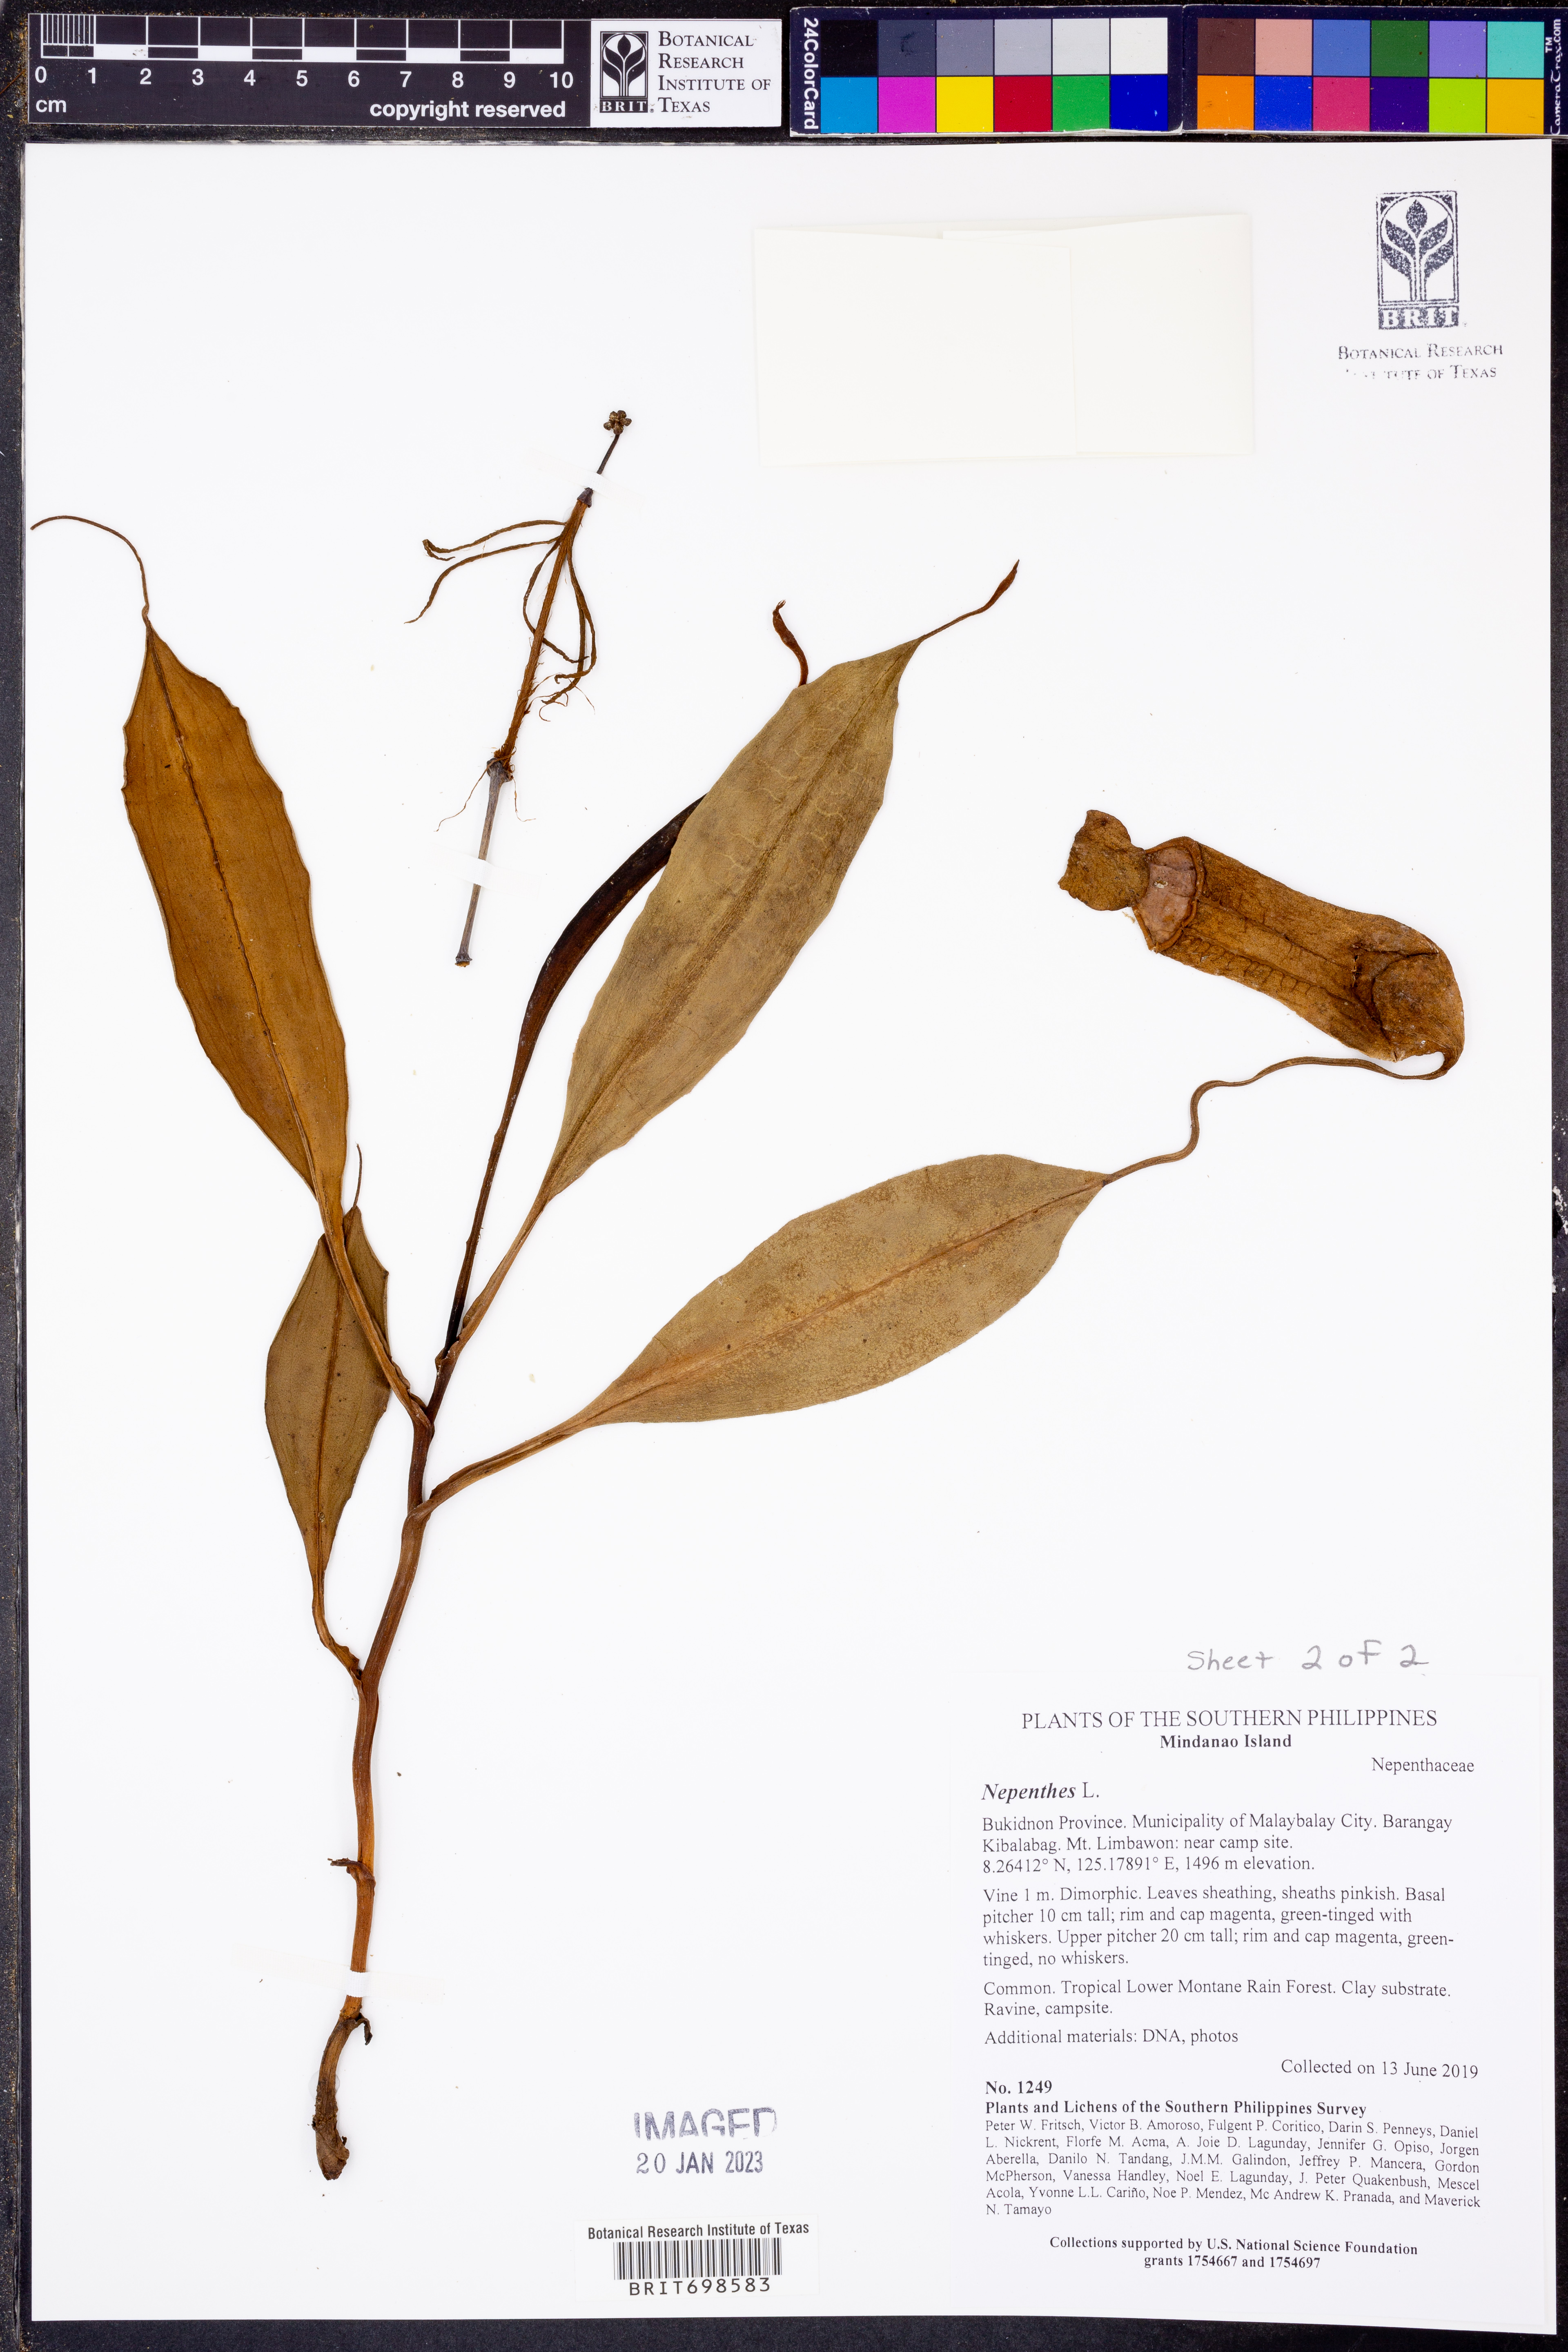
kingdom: Plantae
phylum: Tracheophyta
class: Magnoliopsida
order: Caryophyllales
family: Nepenthaceae
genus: Nepenthes
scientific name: Nepenthes
